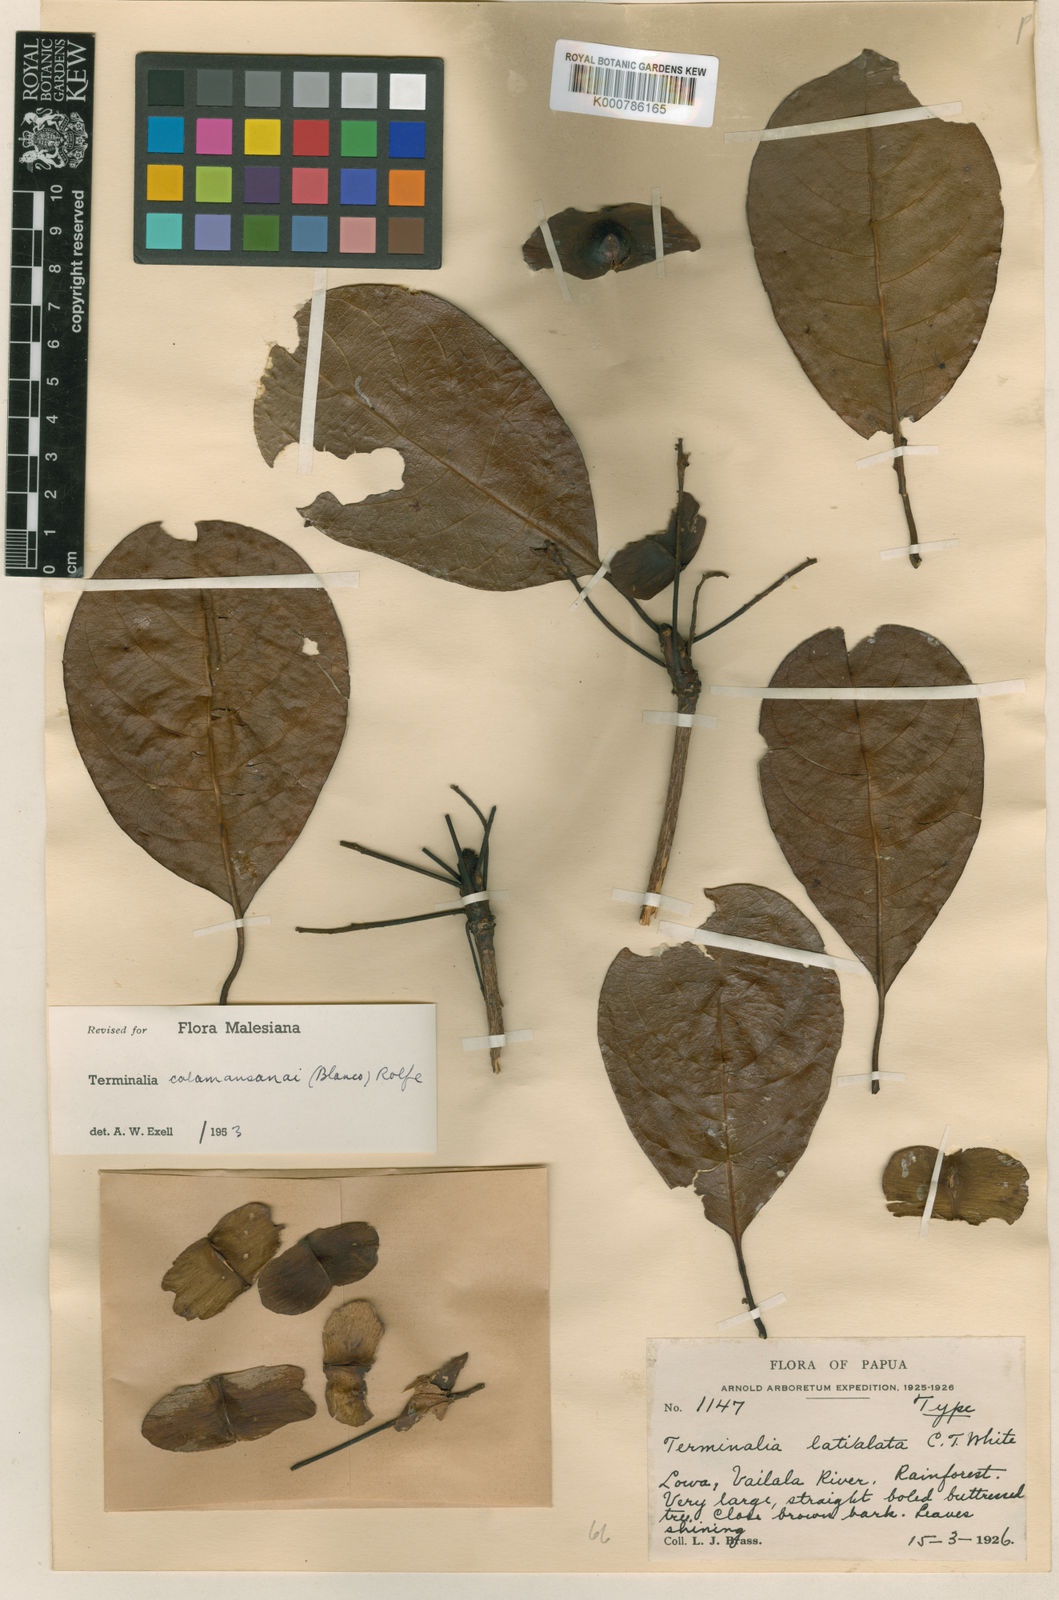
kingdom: Plantae
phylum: Tracheophyta
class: Magnoliopsida
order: Myrtales
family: Combretaceae
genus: Terminalia
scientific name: Terminalia calamansanai
